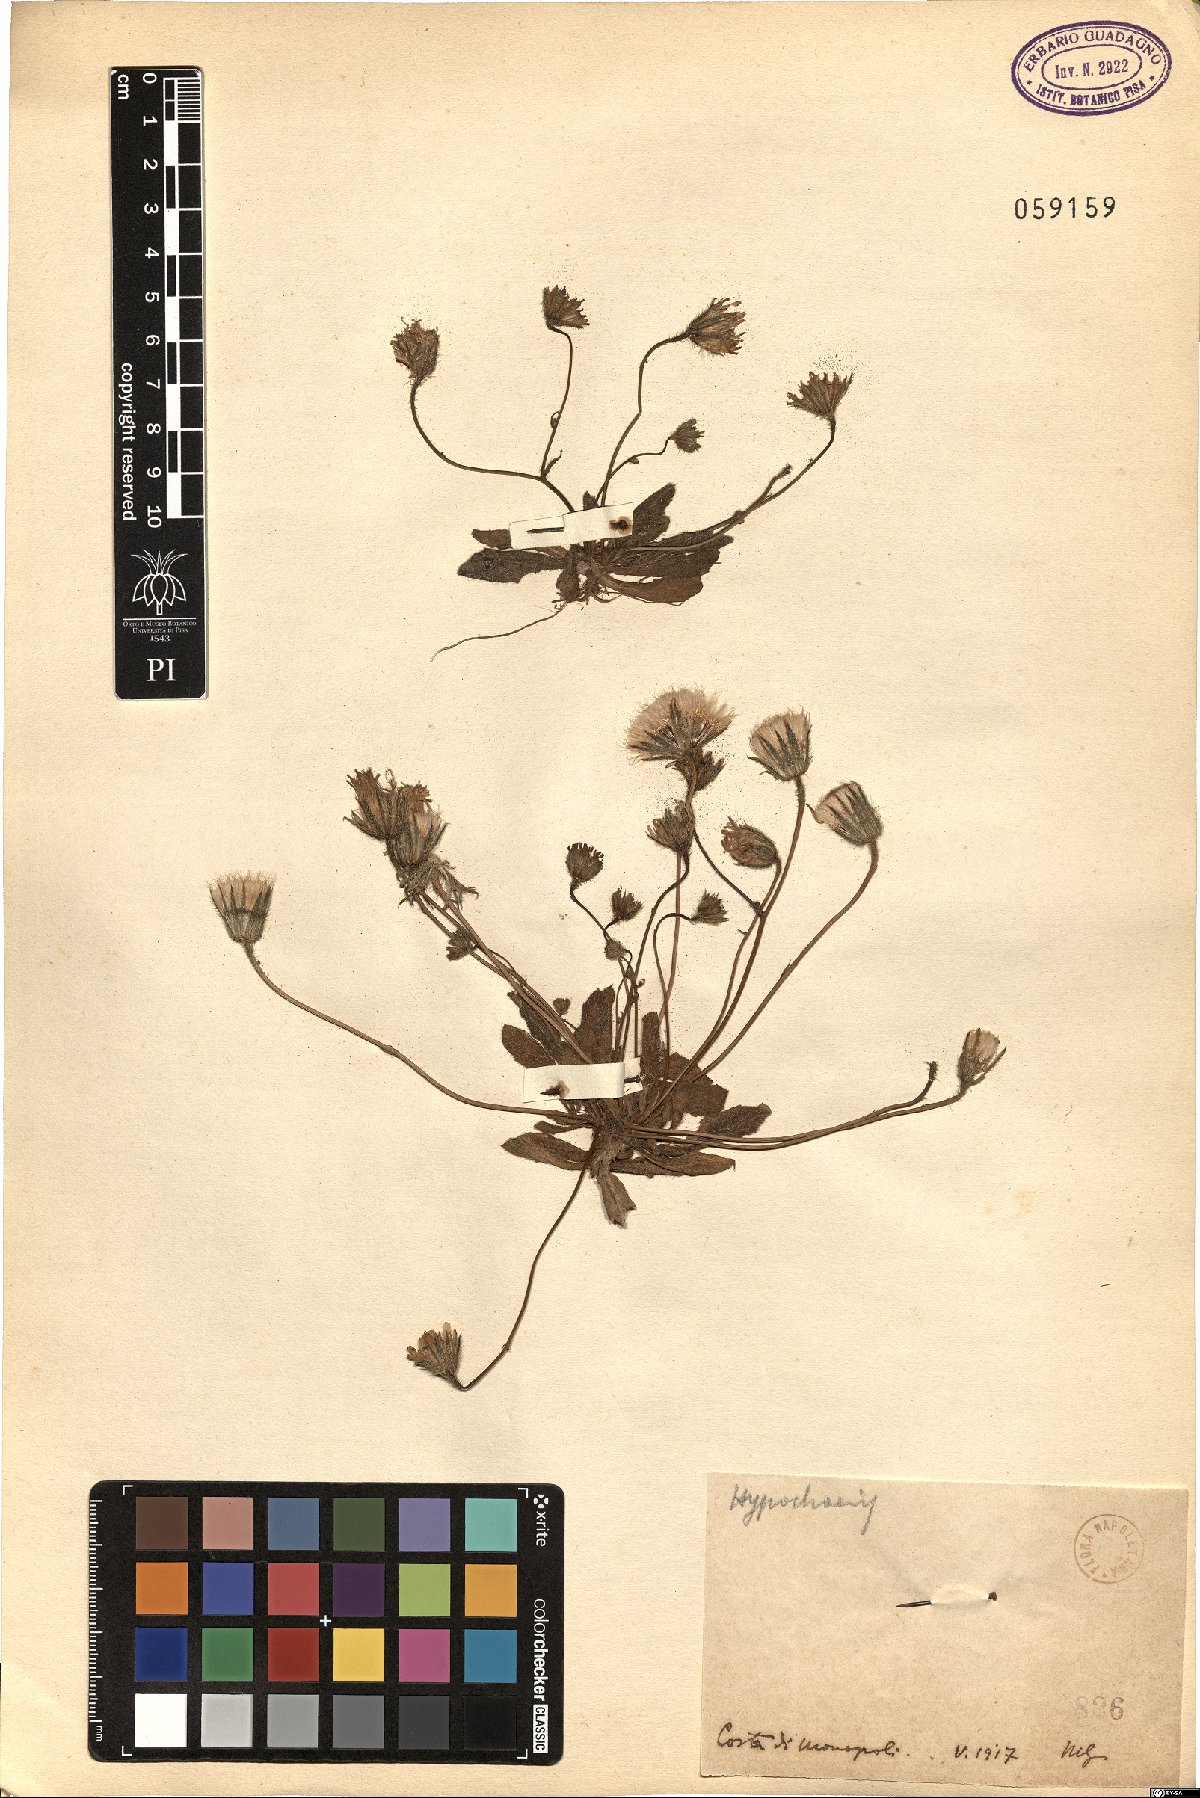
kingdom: Plantae
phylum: Tracheophyta
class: Magnoliopsida
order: Asterales
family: Asteraceae
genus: Achyrophorus
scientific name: Achyrophorus valdesii
